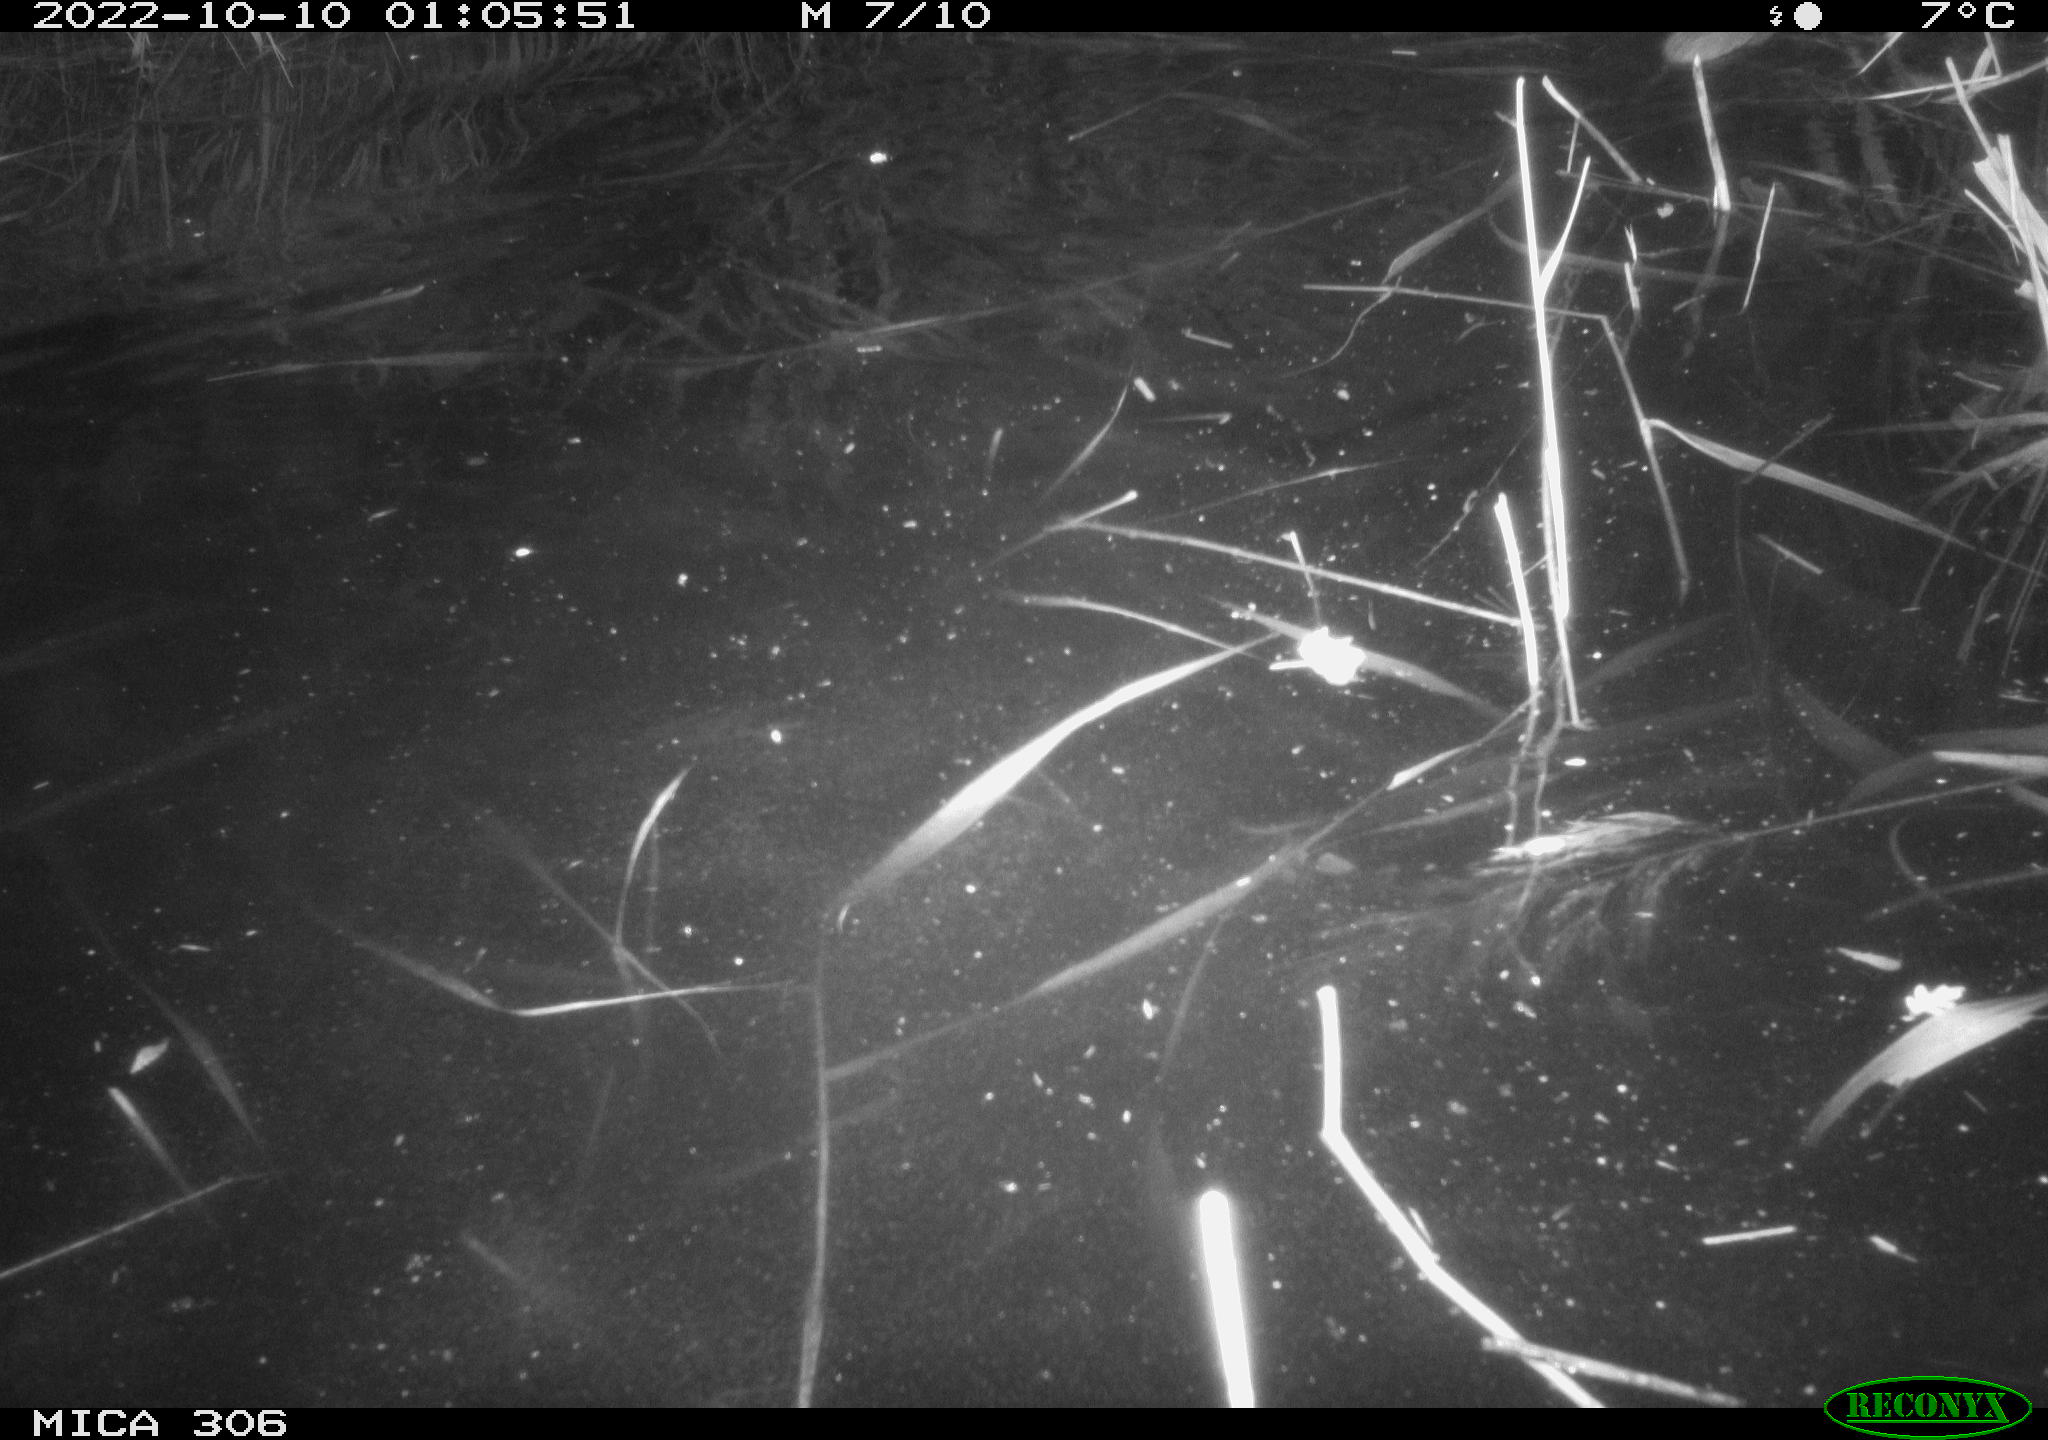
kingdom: Animalia
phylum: Chordata
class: Mammalia
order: Rodentia
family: Muridae
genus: Rattus
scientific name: Rattus norvegicus
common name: Brown rat
